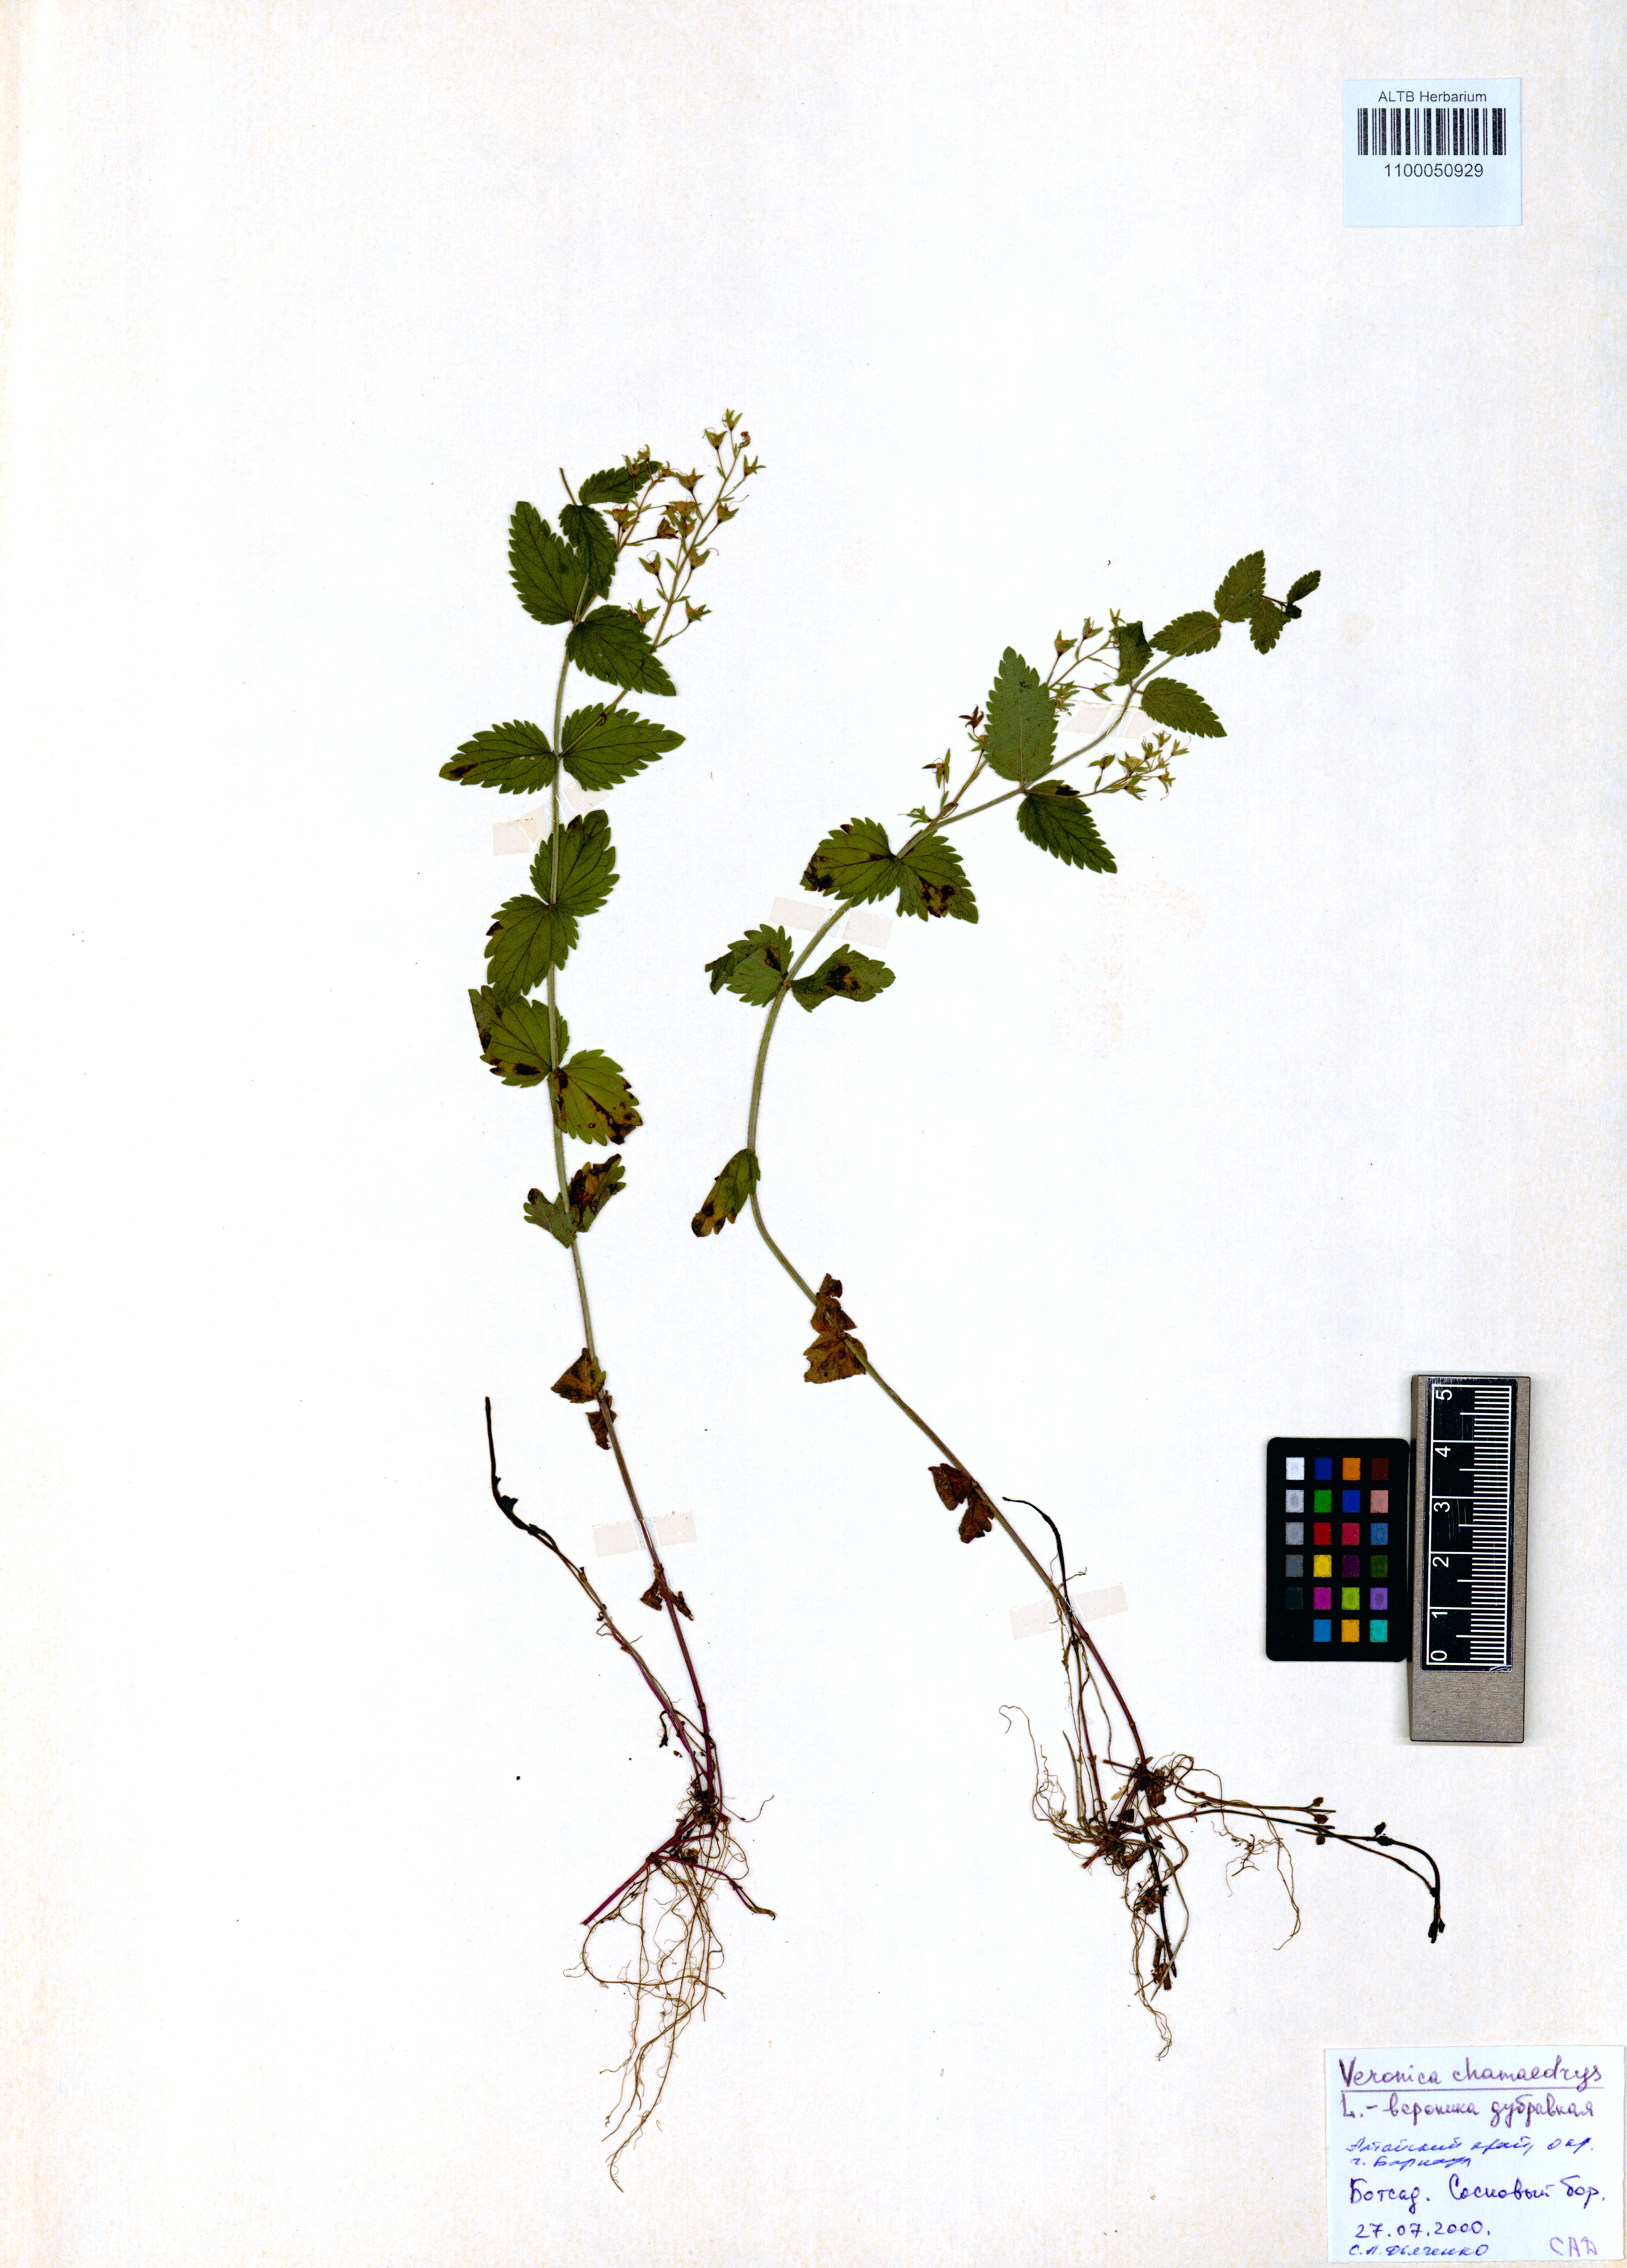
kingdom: Plantae
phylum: Tracheophyta
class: Magnoliopsida
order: Lamiales
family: Plantaginaceae
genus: Veronica
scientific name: Veronica chamaedrys
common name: Germander speedwell
